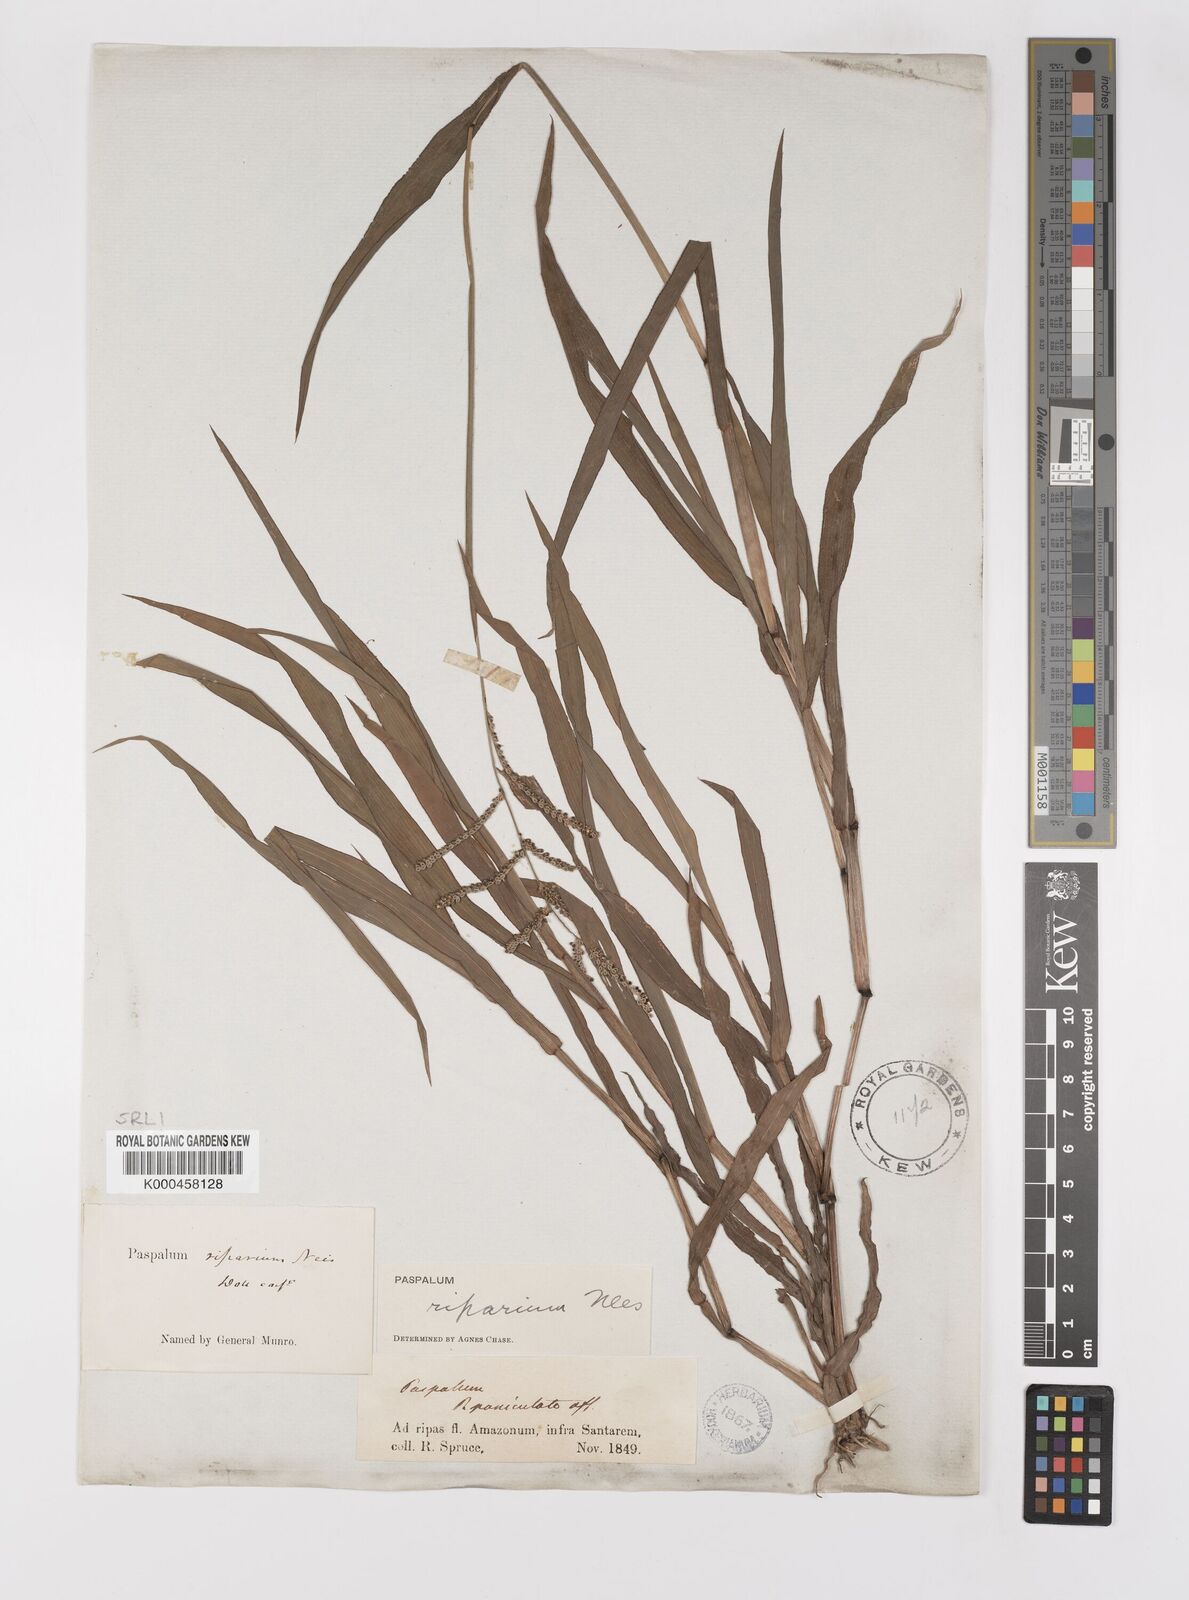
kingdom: Plantae
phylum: Tracheophyta
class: Liliopsida
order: Poales
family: Poaceae
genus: Paspalum
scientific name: Paspalum
